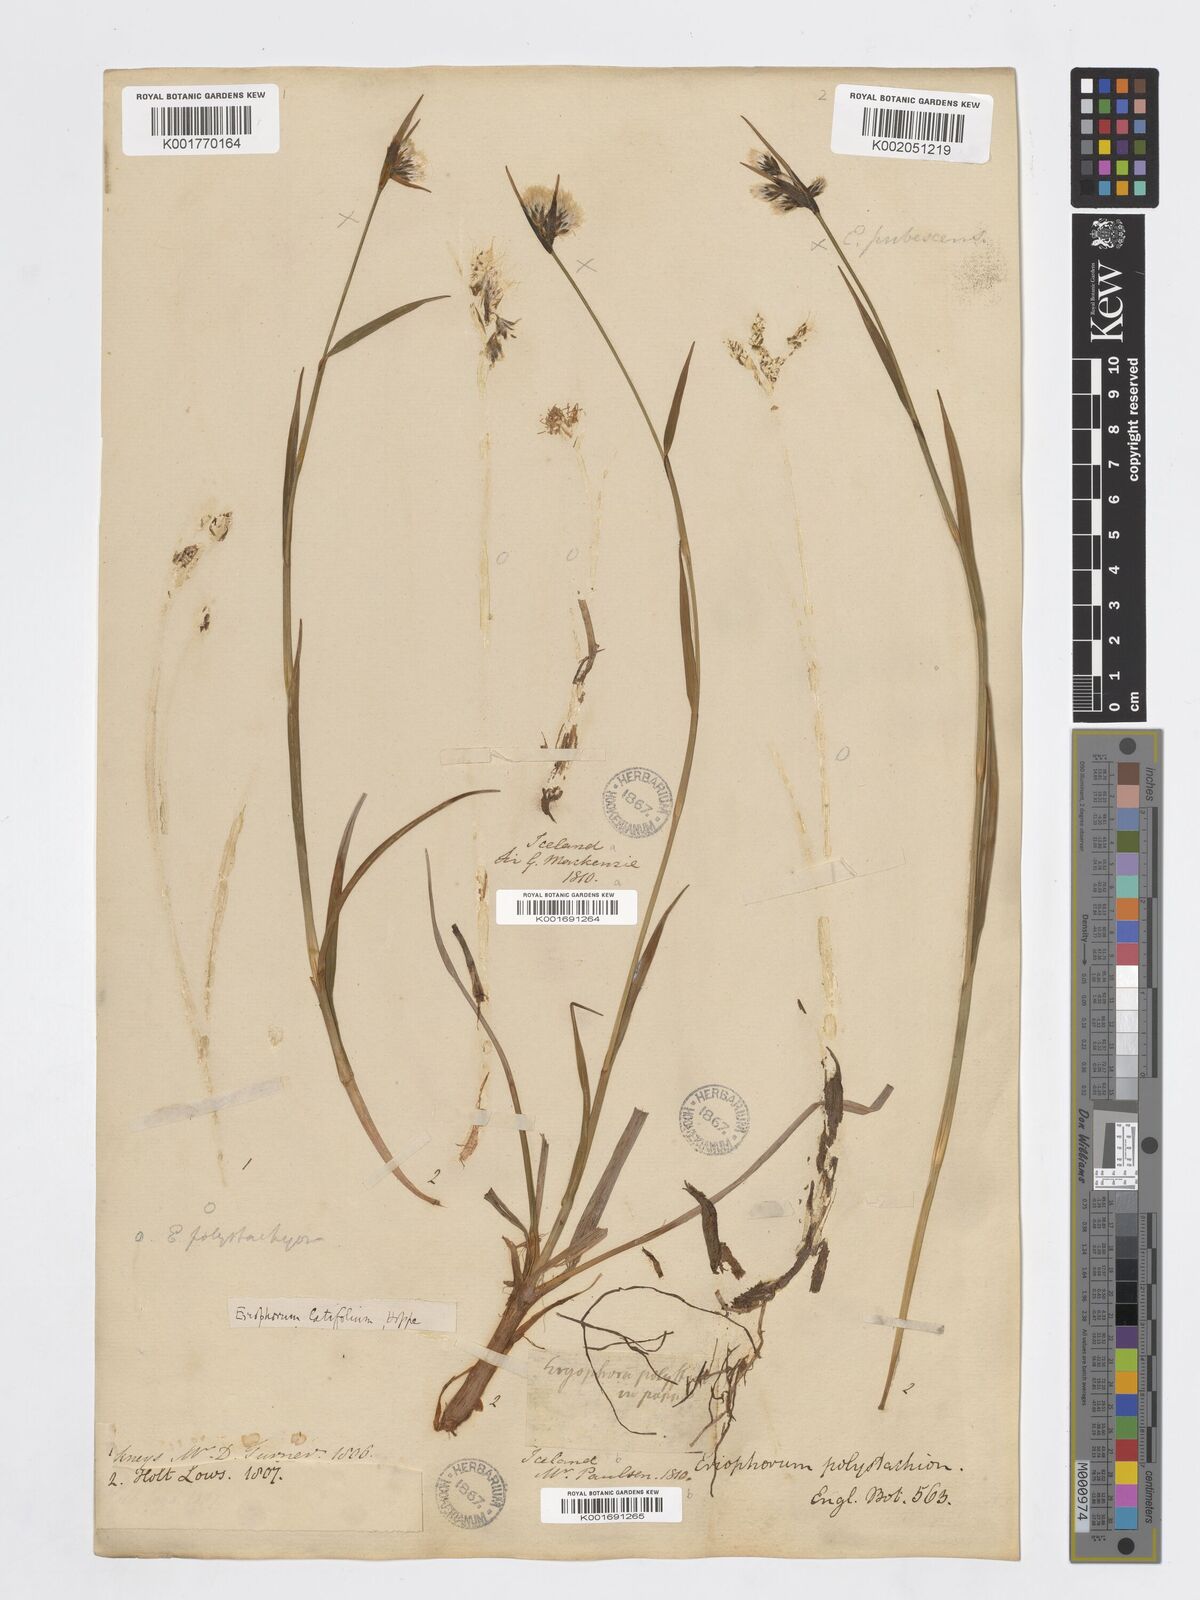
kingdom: Plantae
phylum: Tracheophyta
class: Liliopsida
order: Poales
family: Cyperaceae
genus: Eriophorum
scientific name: Eriophorum latifolium
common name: Broad-leaved cottongrass
